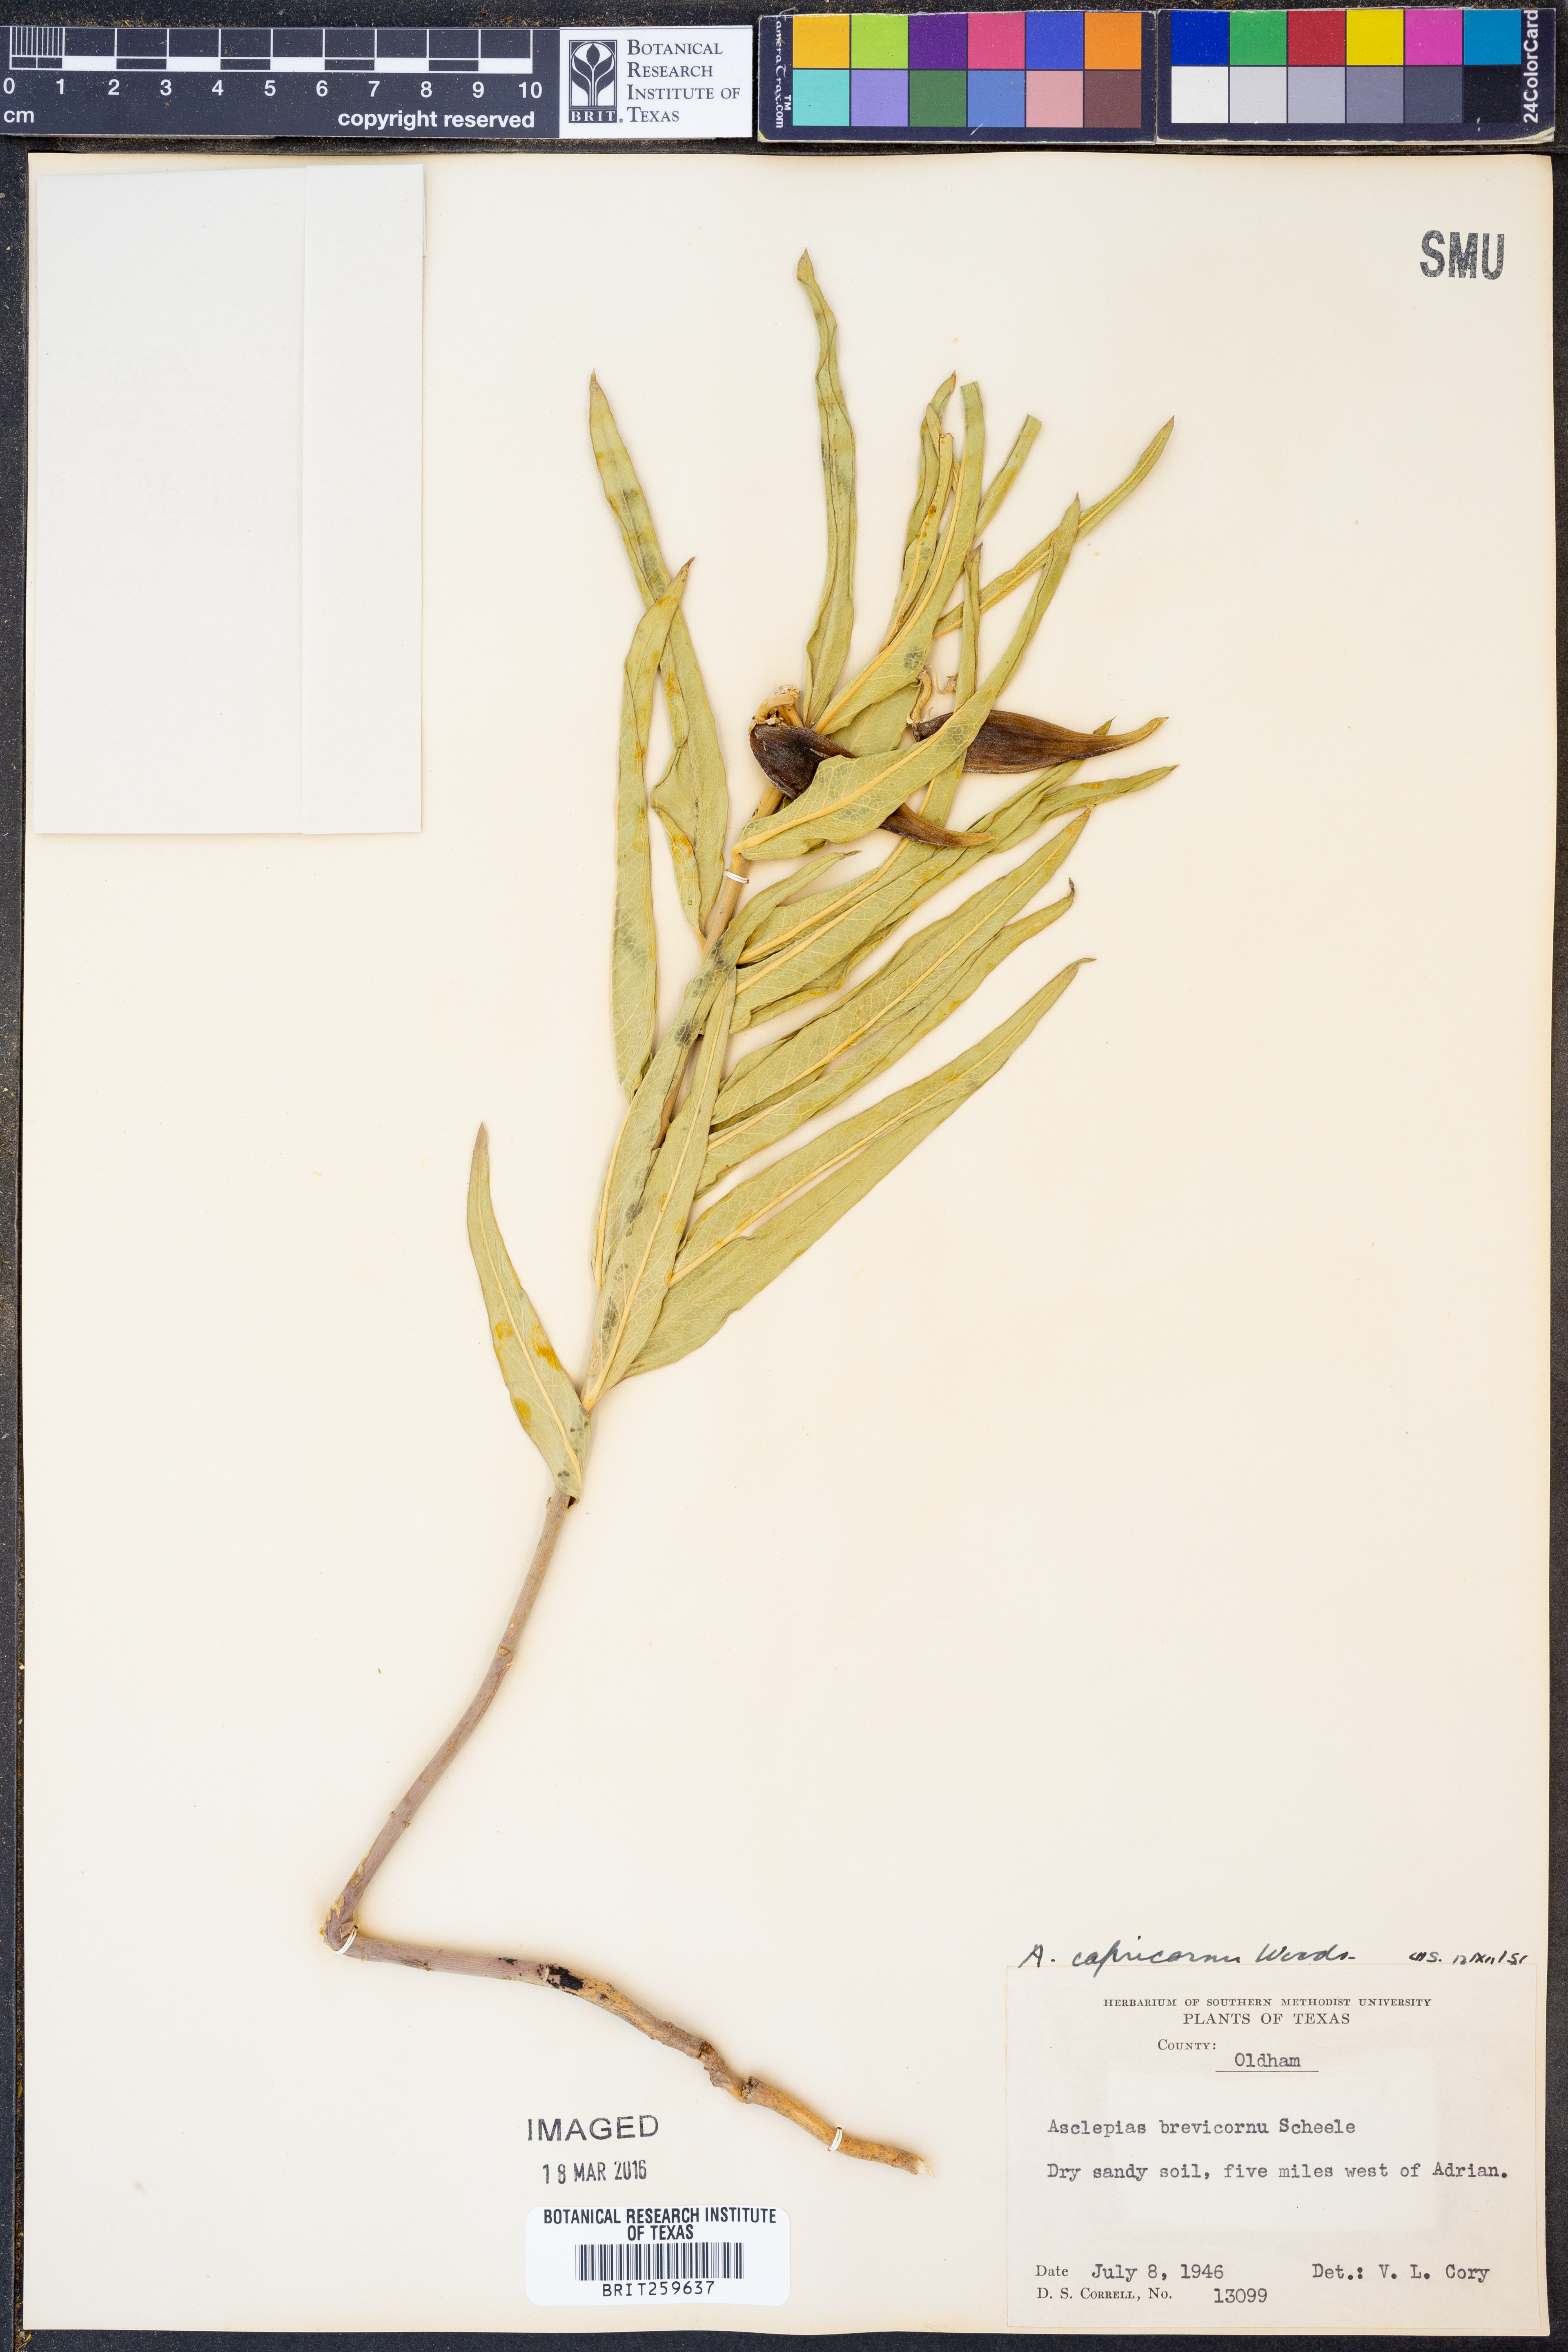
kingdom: Plantae
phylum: Tracheophyta
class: Magnoliopsida
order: Gentianales
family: Apocynaceae
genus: Asclepias
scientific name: Asclepias asperula
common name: Antelope horns
